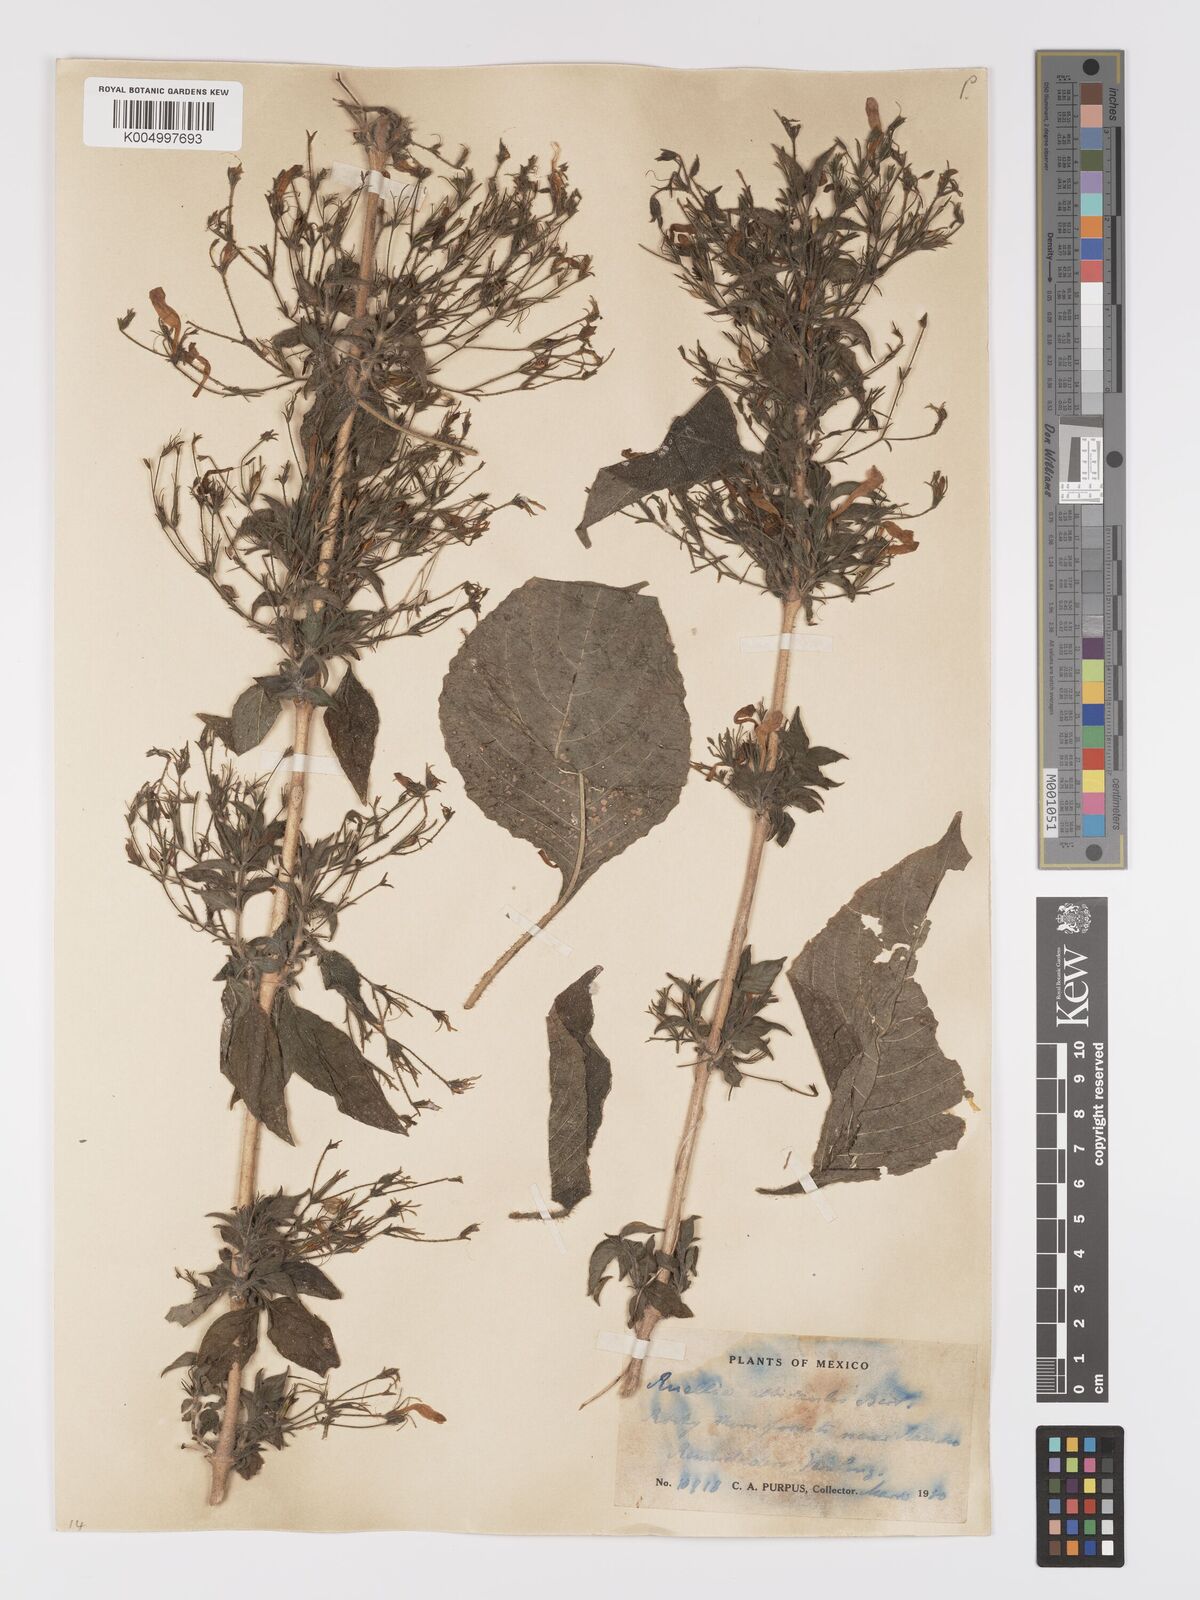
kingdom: Plantae
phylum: Tracheophyta
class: Magnoliopsida
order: Lamiales
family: Acanthaceae
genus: Ruellia
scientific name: Ruellia inundata
